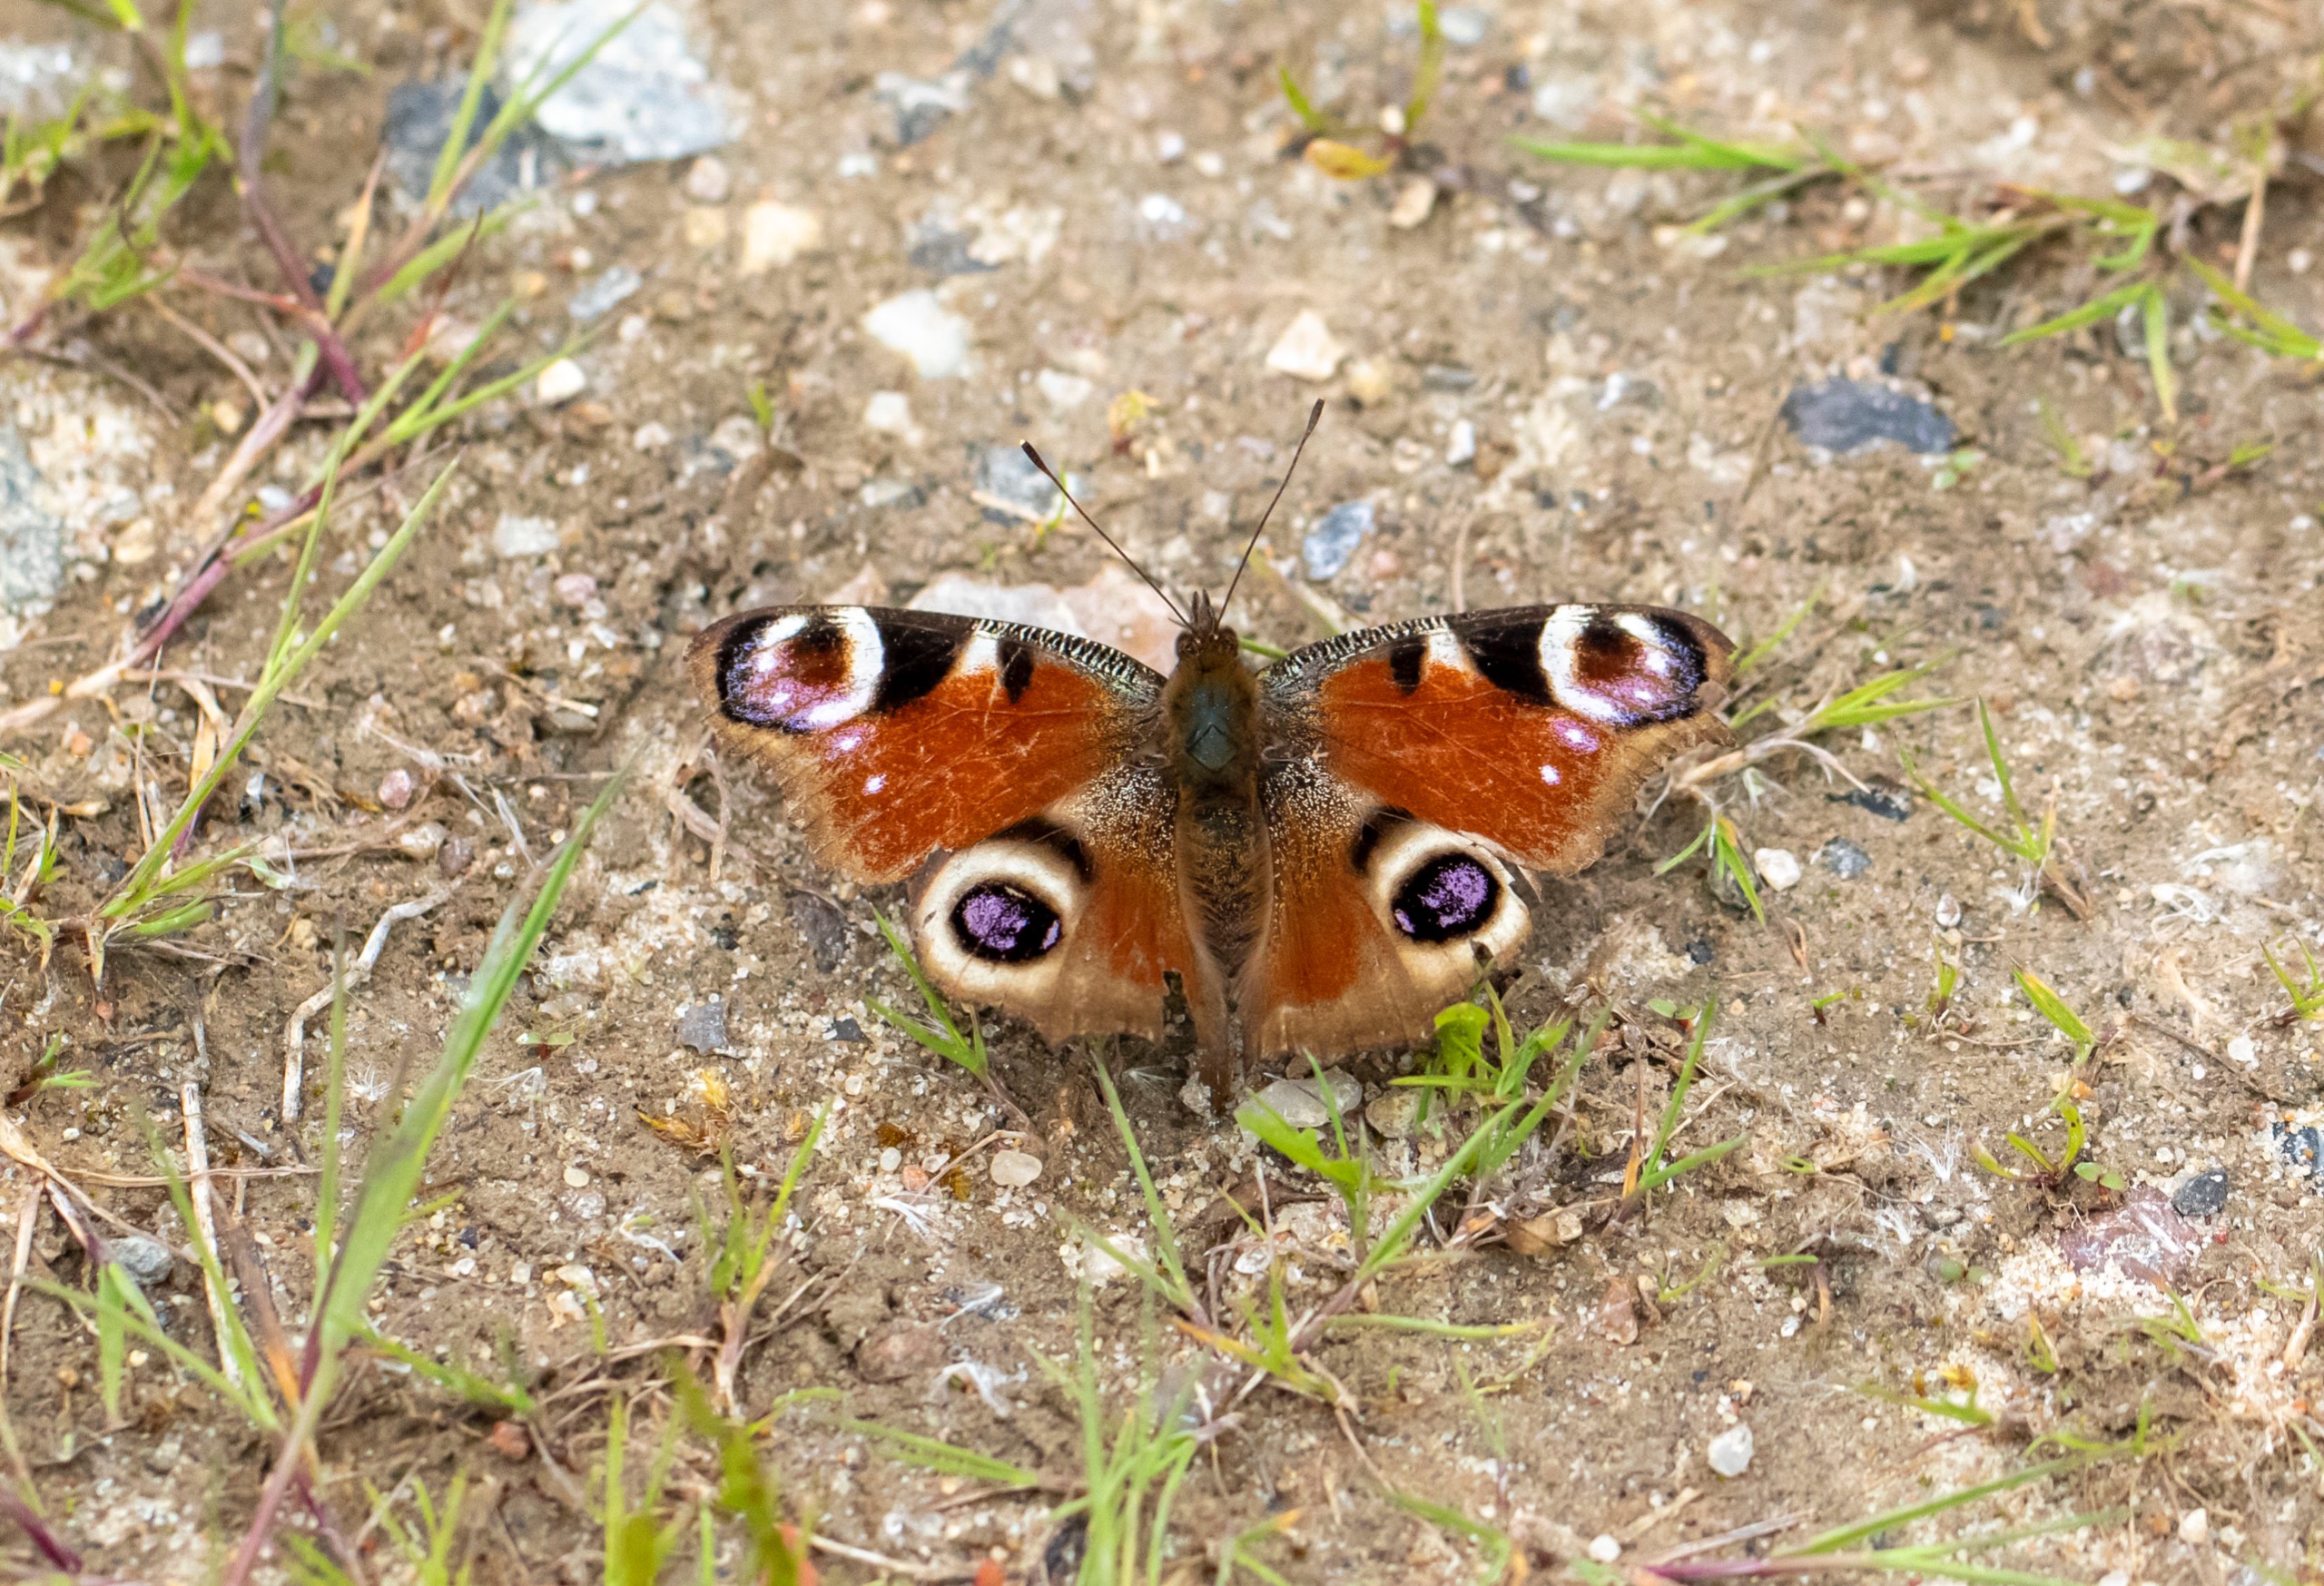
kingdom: Animalia
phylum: Arthropoda
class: Insecta
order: Lepidoptera
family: Nymphalidae
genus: Aglais
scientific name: Aglais io
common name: Dagpåfugleøje
